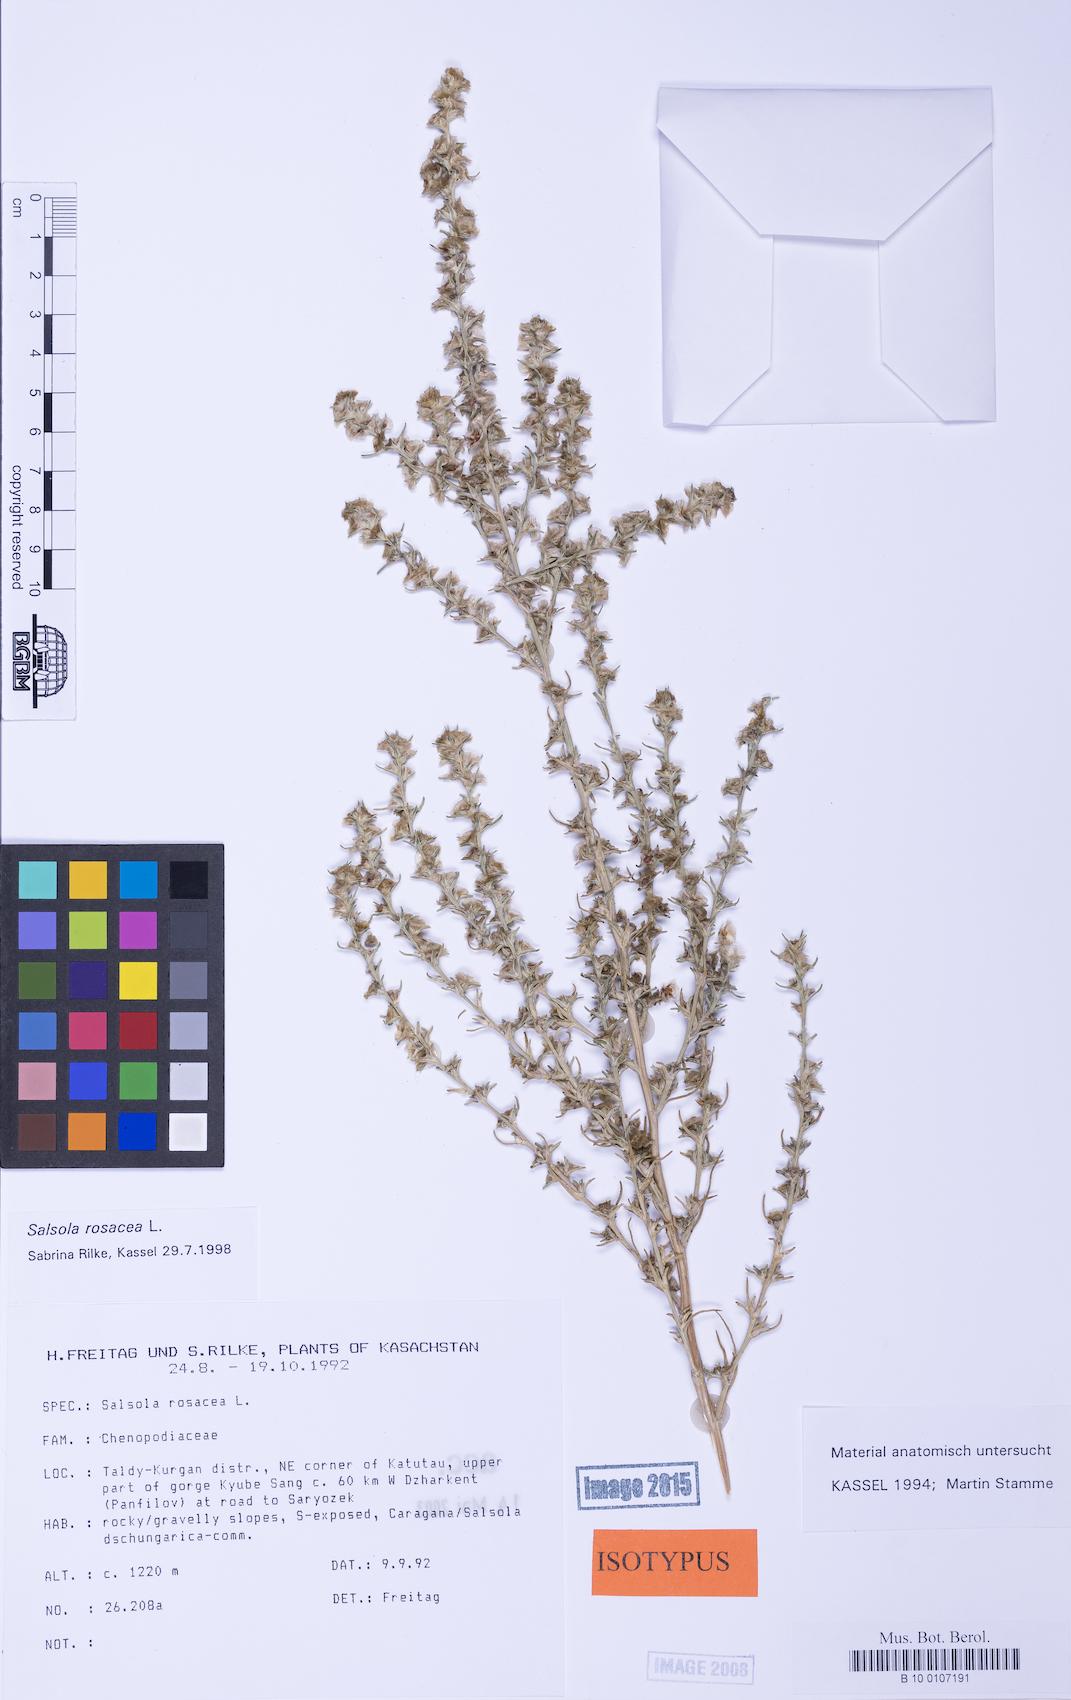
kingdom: Plantae
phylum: Tracheophyta
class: Magnoliopsida
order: Caryophyllales
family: Amaranthaceae
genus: Salsola
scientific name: Salsola rosacea
